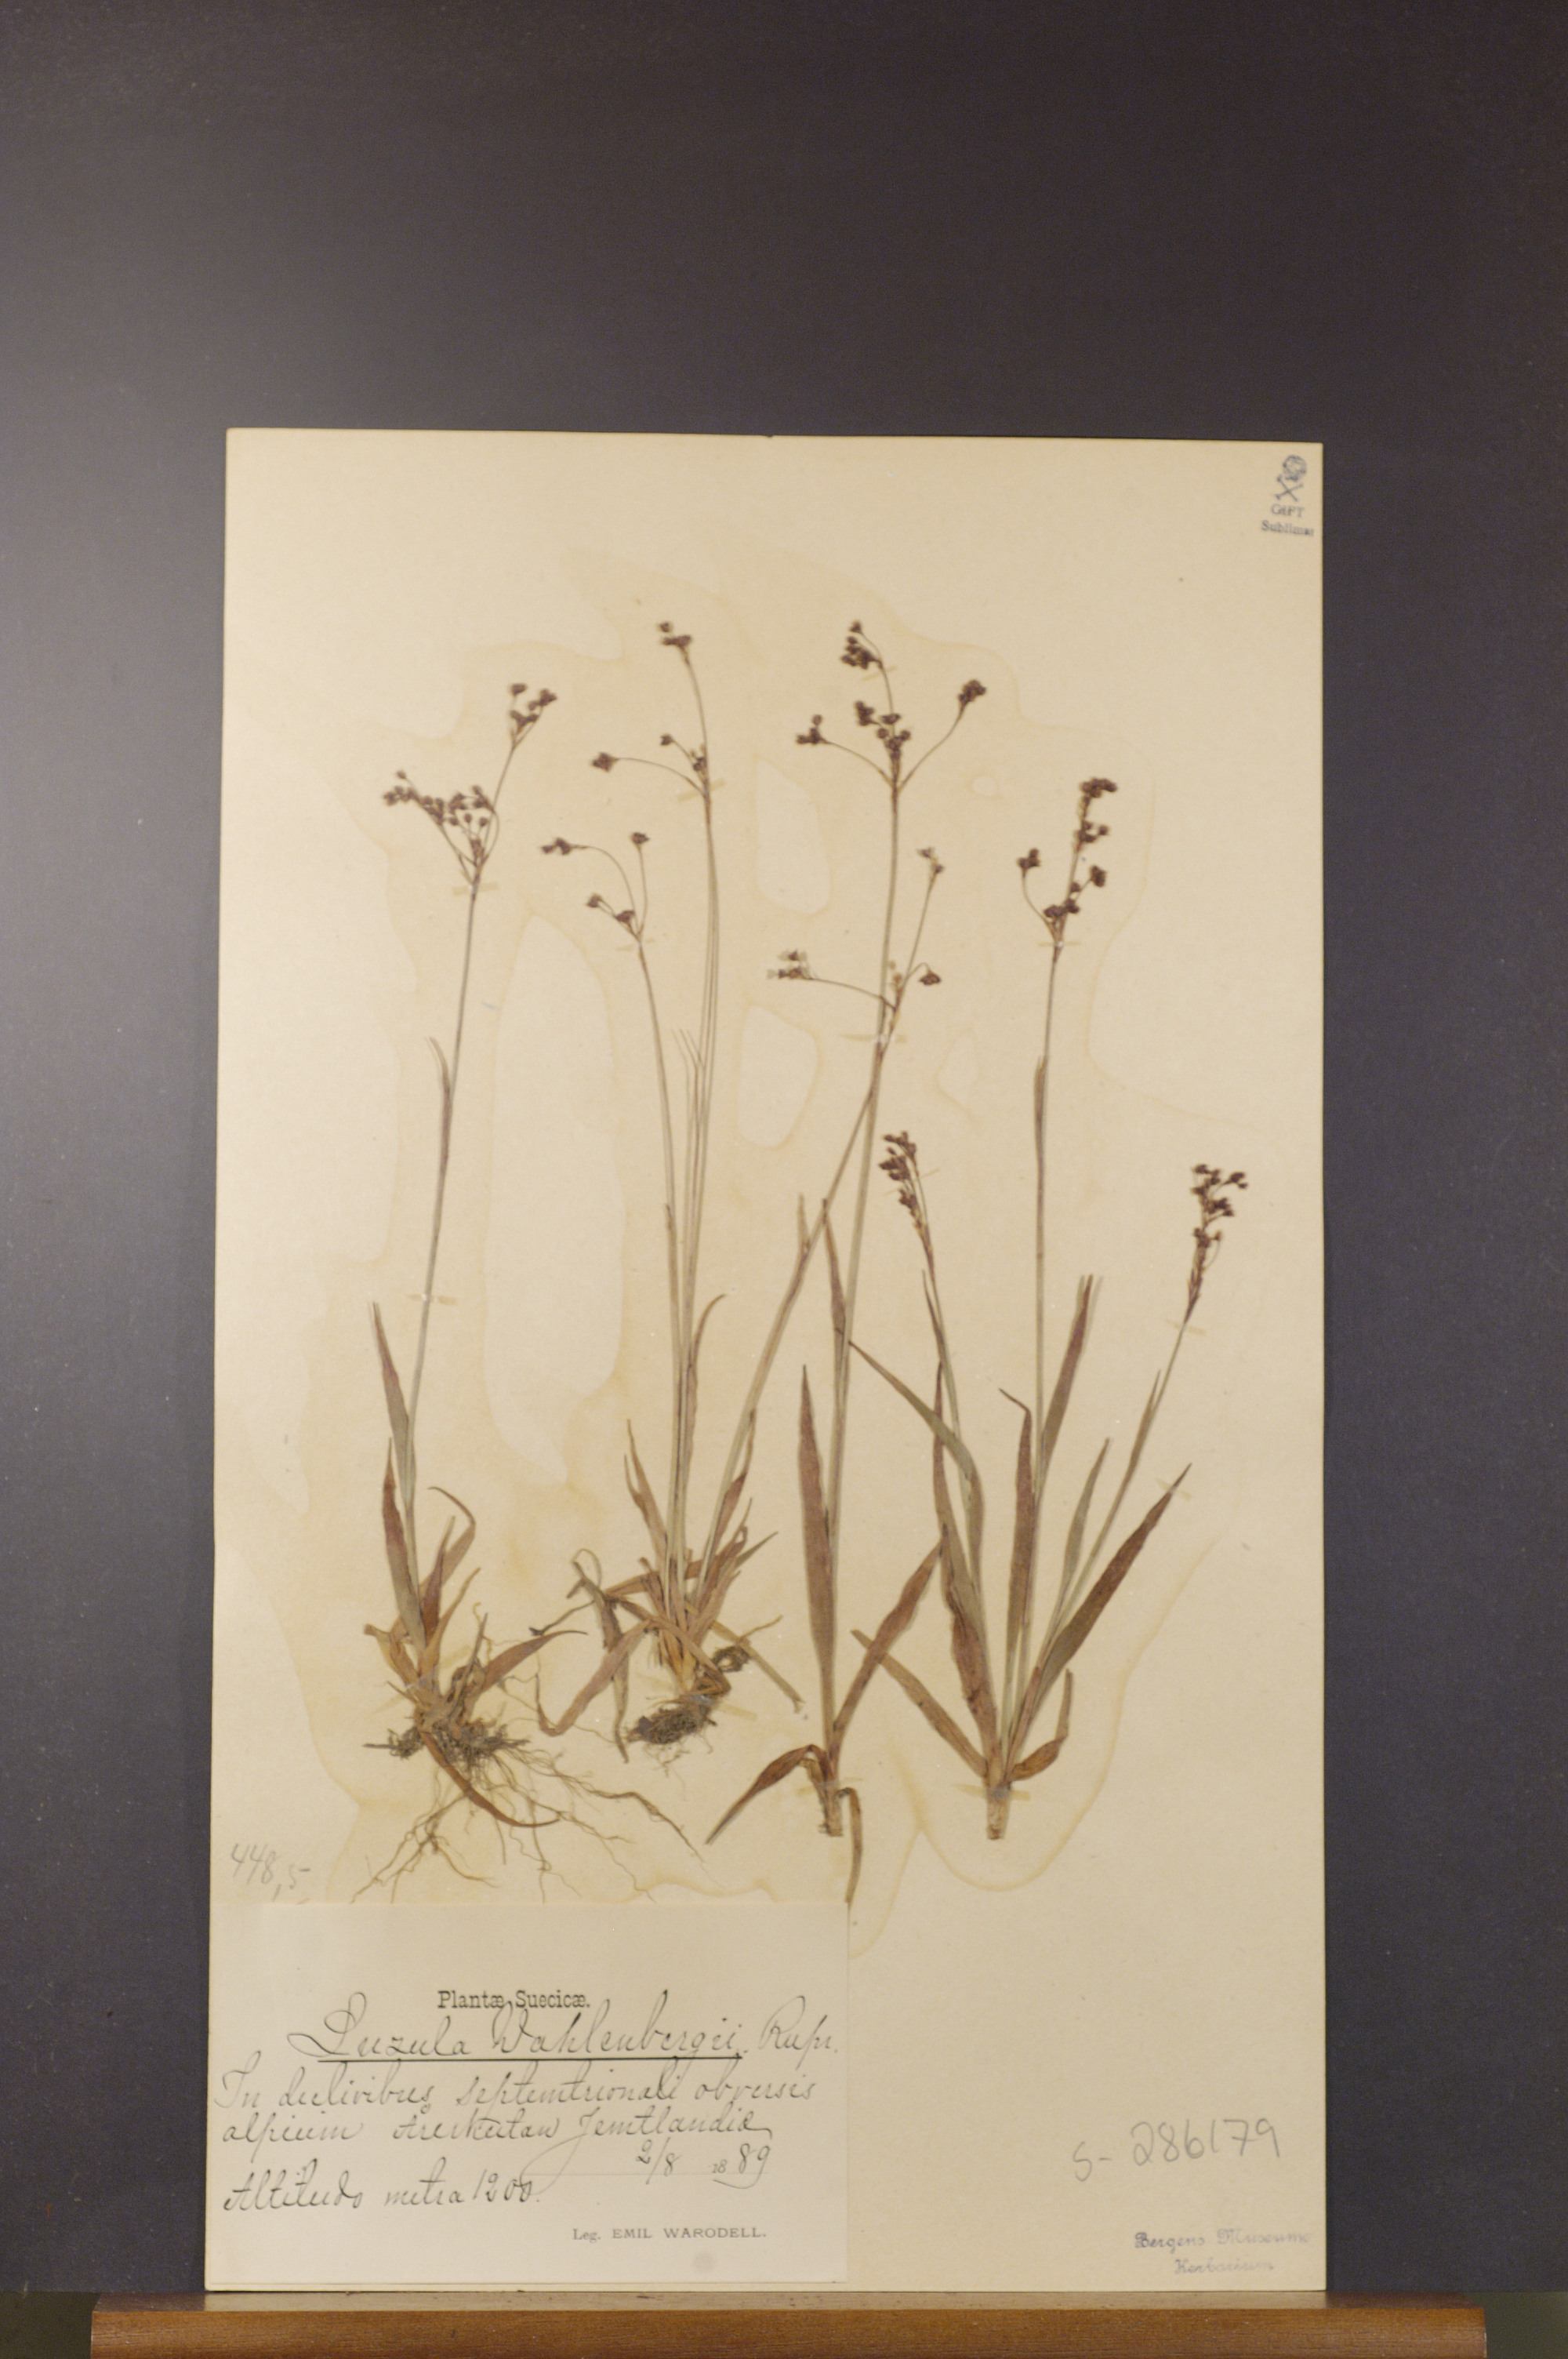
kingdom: Plantae
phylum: Tracheophyta
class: Liliopsida
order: Poales
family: Juncaceae
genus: Luzula
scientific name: Luzula wahlenbergii
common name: Wahlenberg's wood-rush
